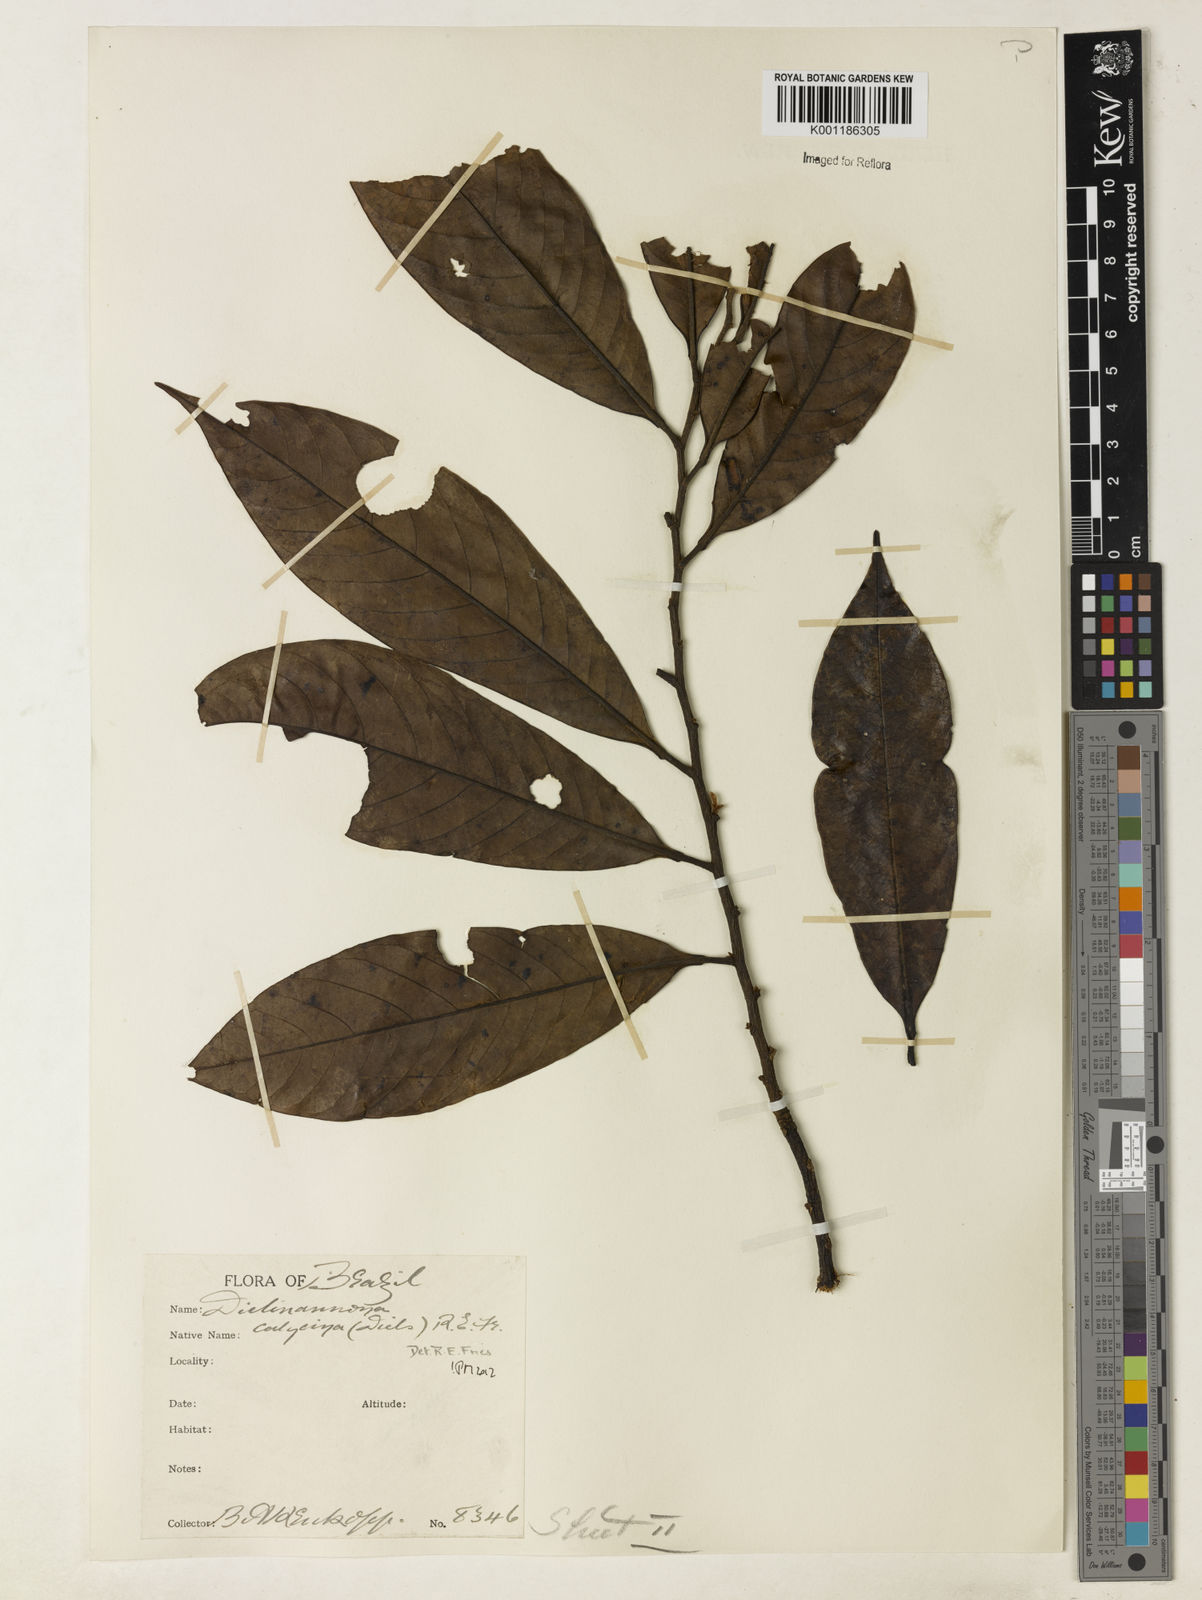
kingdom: Plantae
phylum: Tracheophyta
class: Magnoliopsida
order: Magnoliales
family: Annonaceae
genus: Diclinanona
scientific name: Diclinanona calycina
